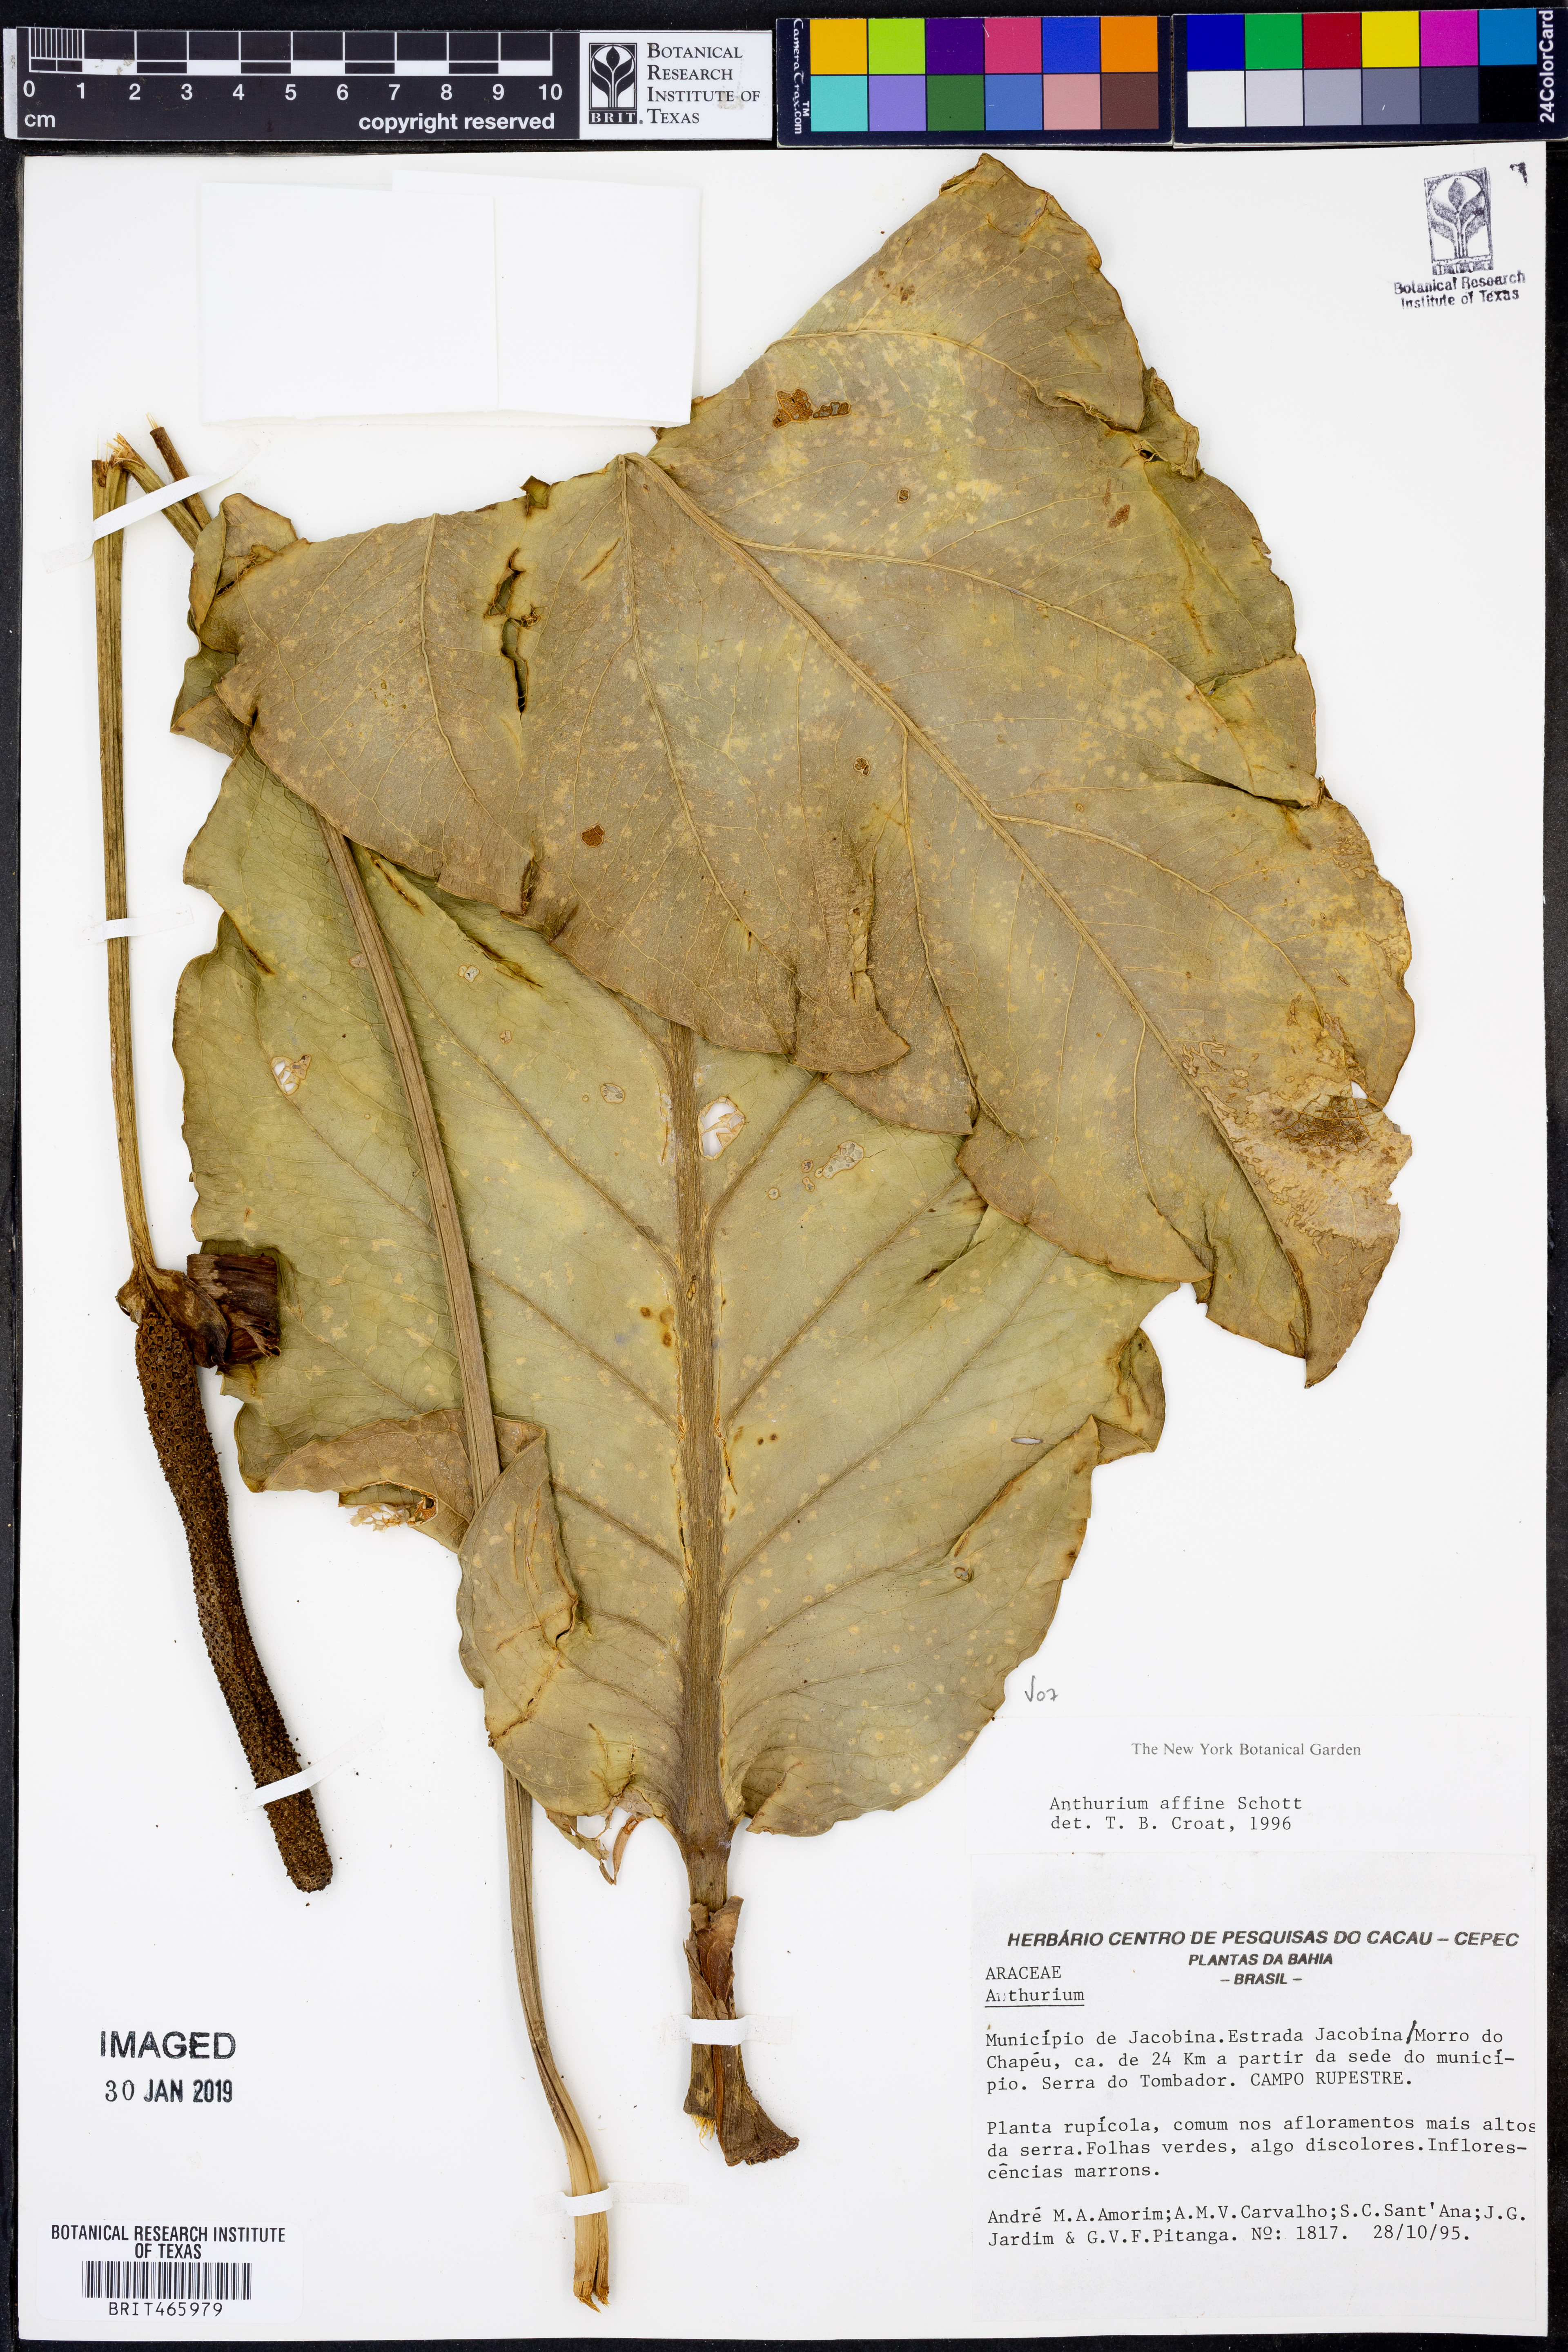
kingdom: Plantae
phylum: Tracheophyta
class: Liliopsida
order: Alismatales
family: Araceae
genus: Anthurium
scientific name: Anthurium affine
